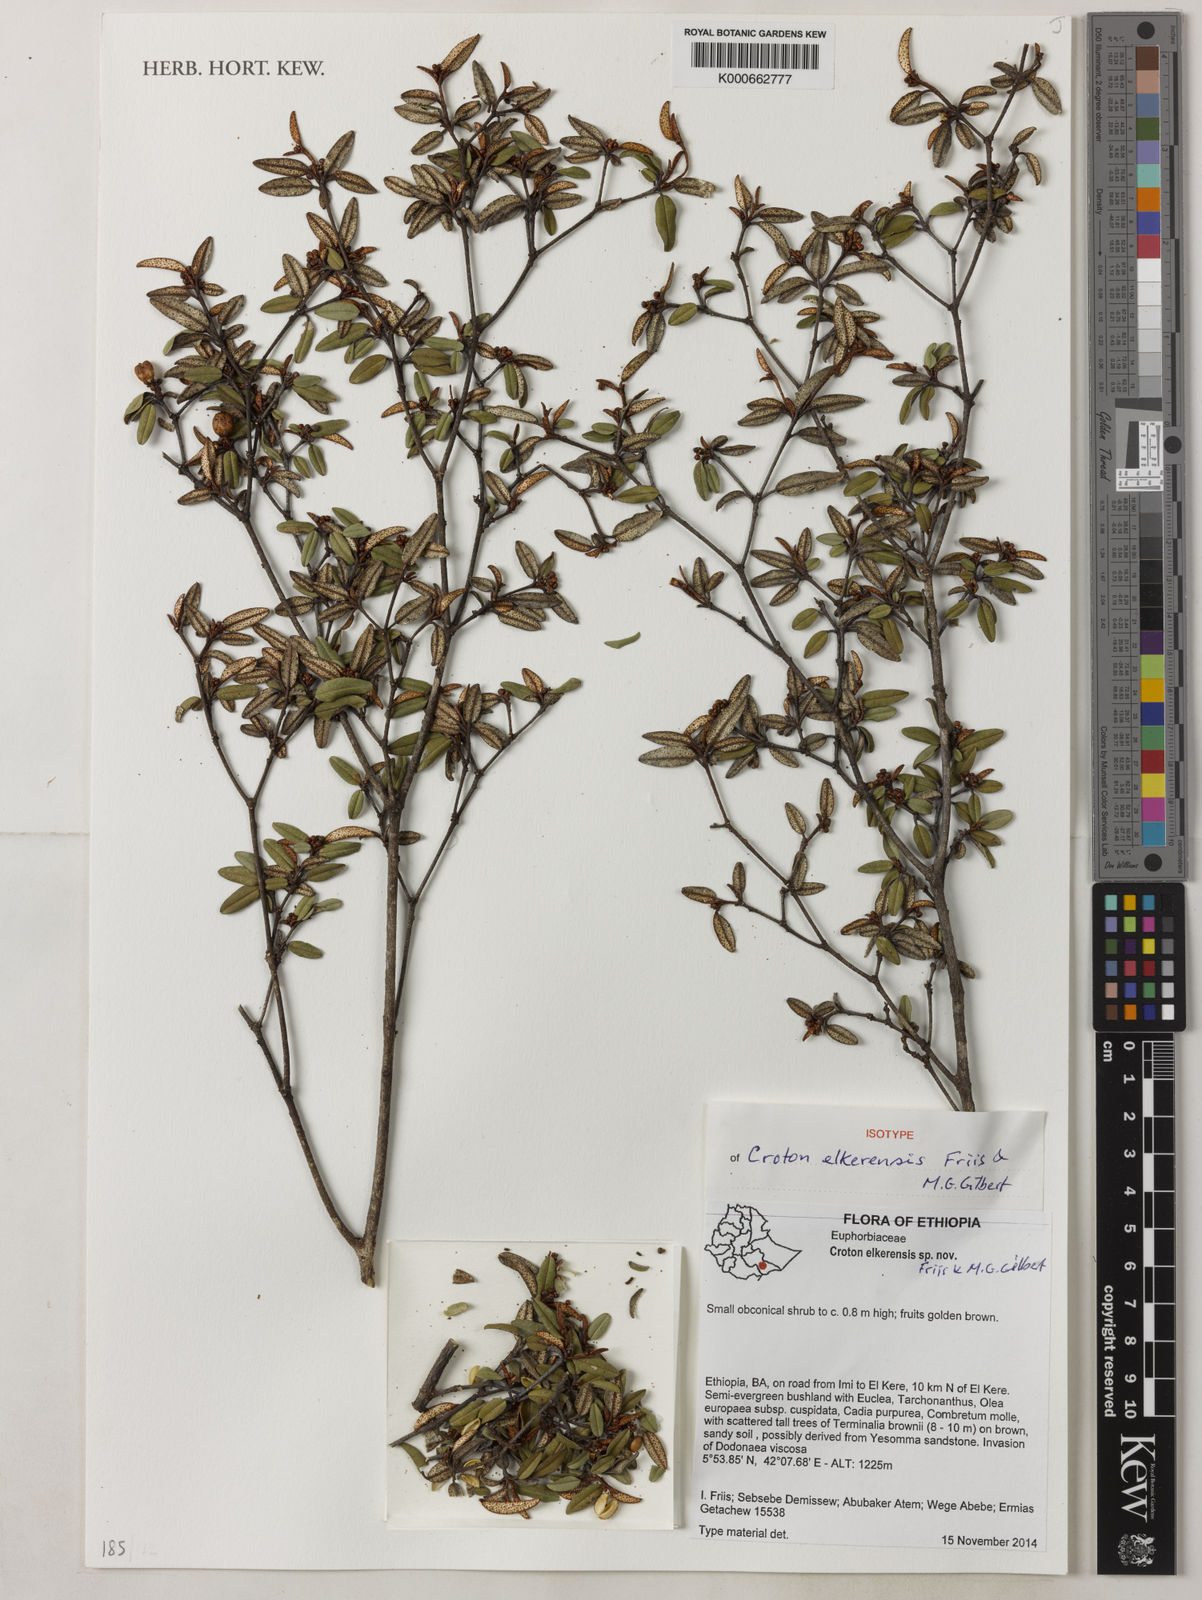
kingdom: Plantae
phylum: Tracheophyta
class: Magnoliopsida
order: Malpighiales
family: Euphorbiaceae
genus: Croton
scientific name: Croton elkerensis
